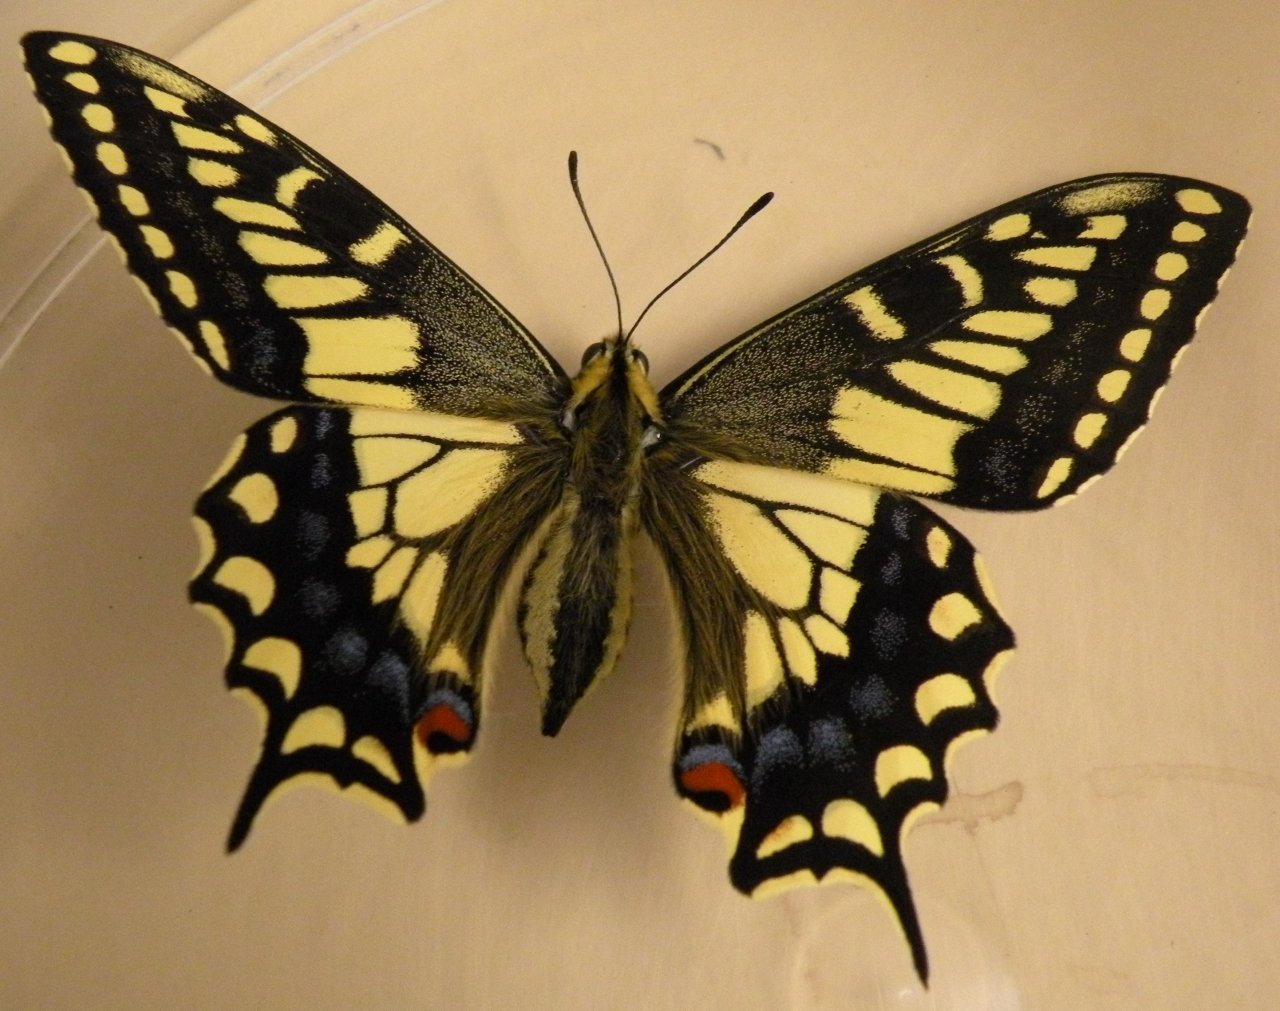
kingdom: Animalia
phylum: Arthropoda
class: Insecta
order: Lepidoptera
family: Papilionidae
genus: Papilio
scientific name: Papilio machaon
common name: Old World Swallowtail
